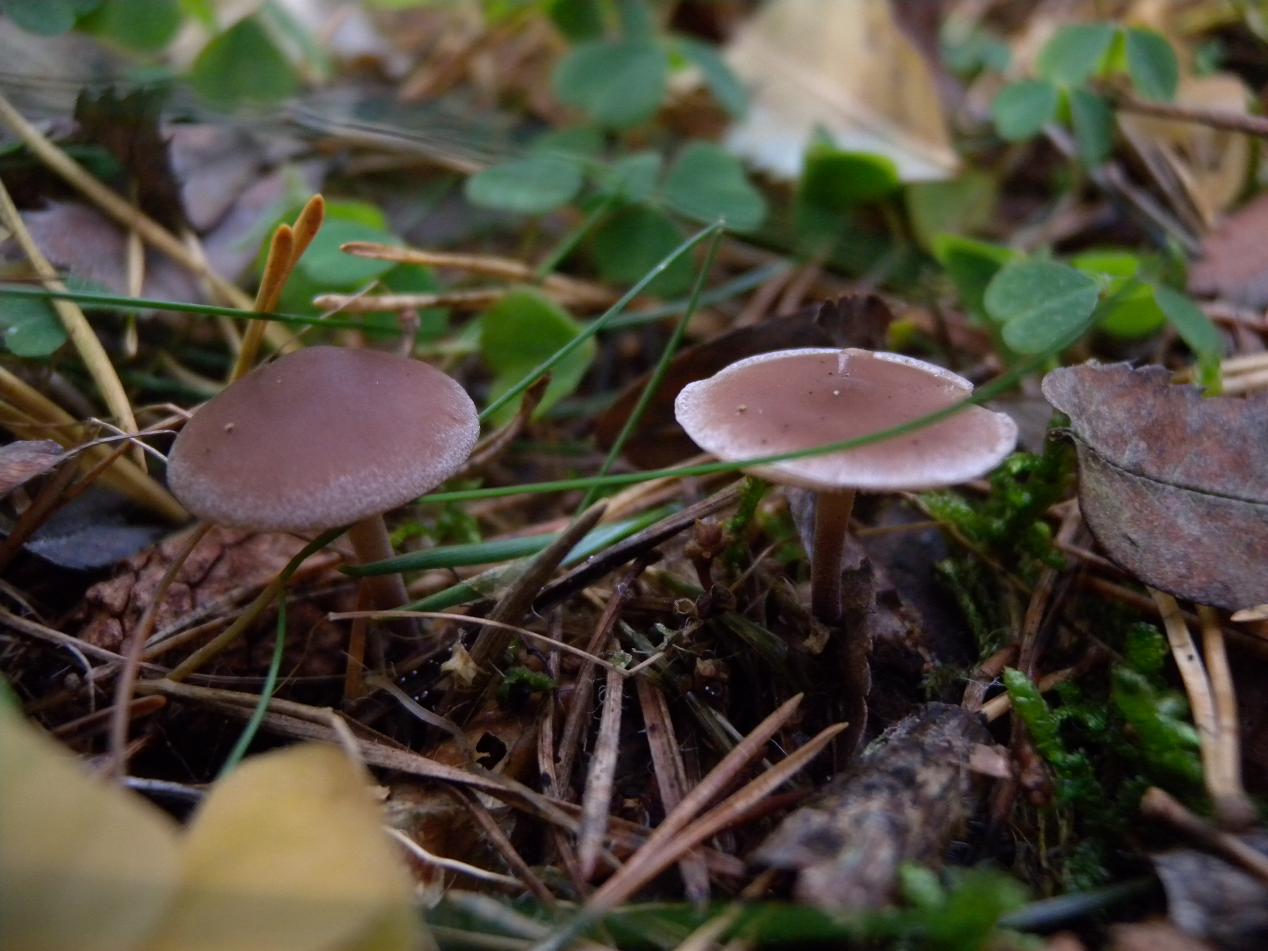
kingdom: Fungi
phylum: Basidiomycota
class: Agaricomycetes
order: Agaricales
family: Marasmiaceae
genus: Baeospora
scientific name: Baeospora myosura
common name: koglebruskhat
